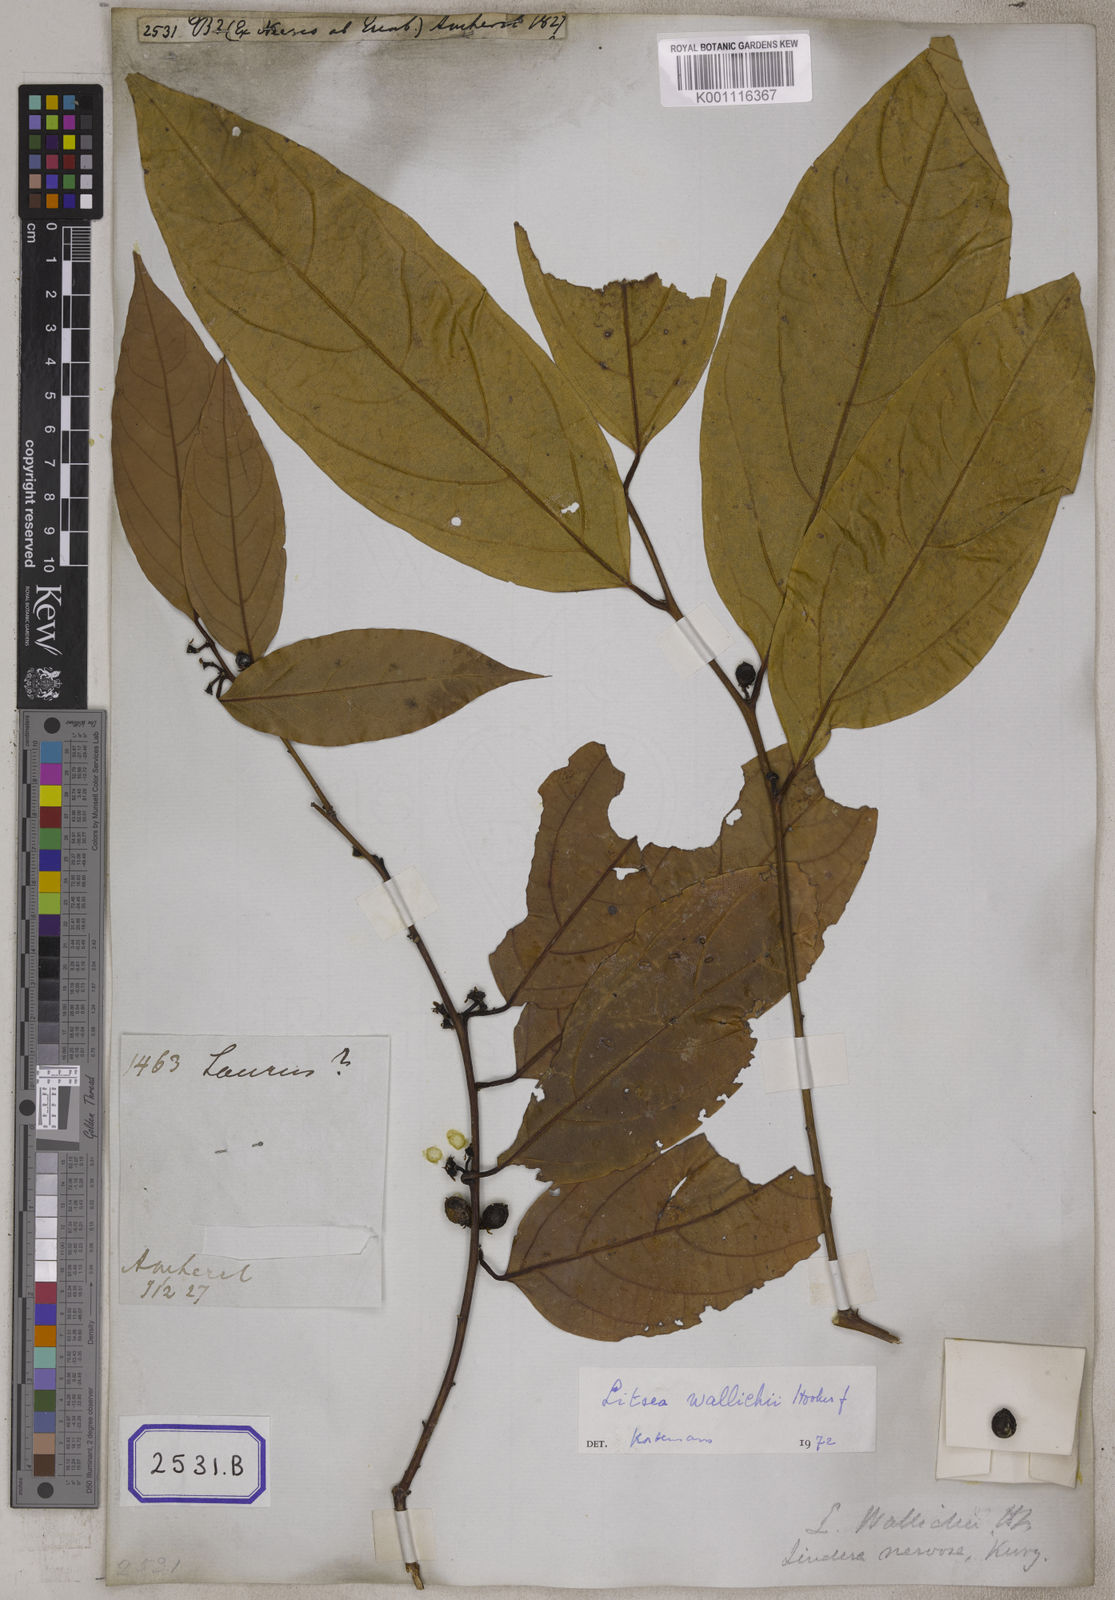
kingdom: Plantae
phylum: Tracheophyta
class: Magnoliopsida
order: Laurales
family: Lauraceae
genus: Litsea
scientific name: Litsea
